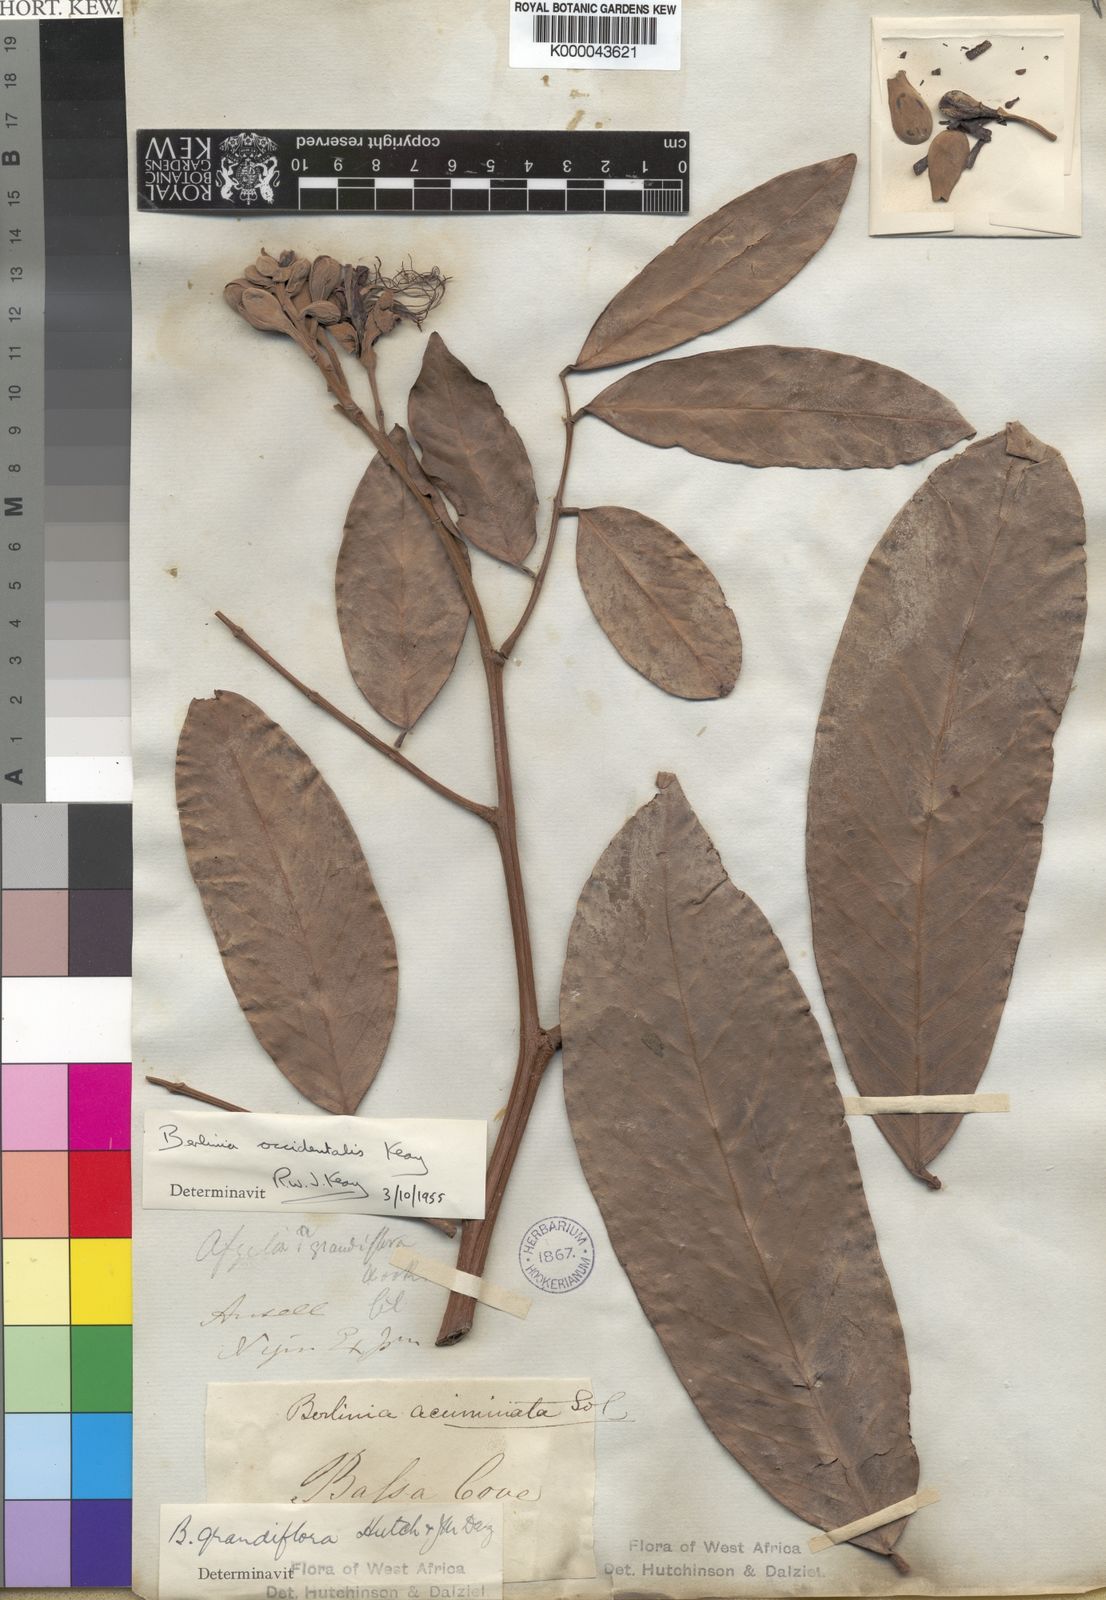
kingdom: Plantae
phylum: Tracheophyta
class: Magnoliopsida
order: Fabales
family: Fabaceae
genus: Berlinia
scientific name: Berlinia occidentalis
